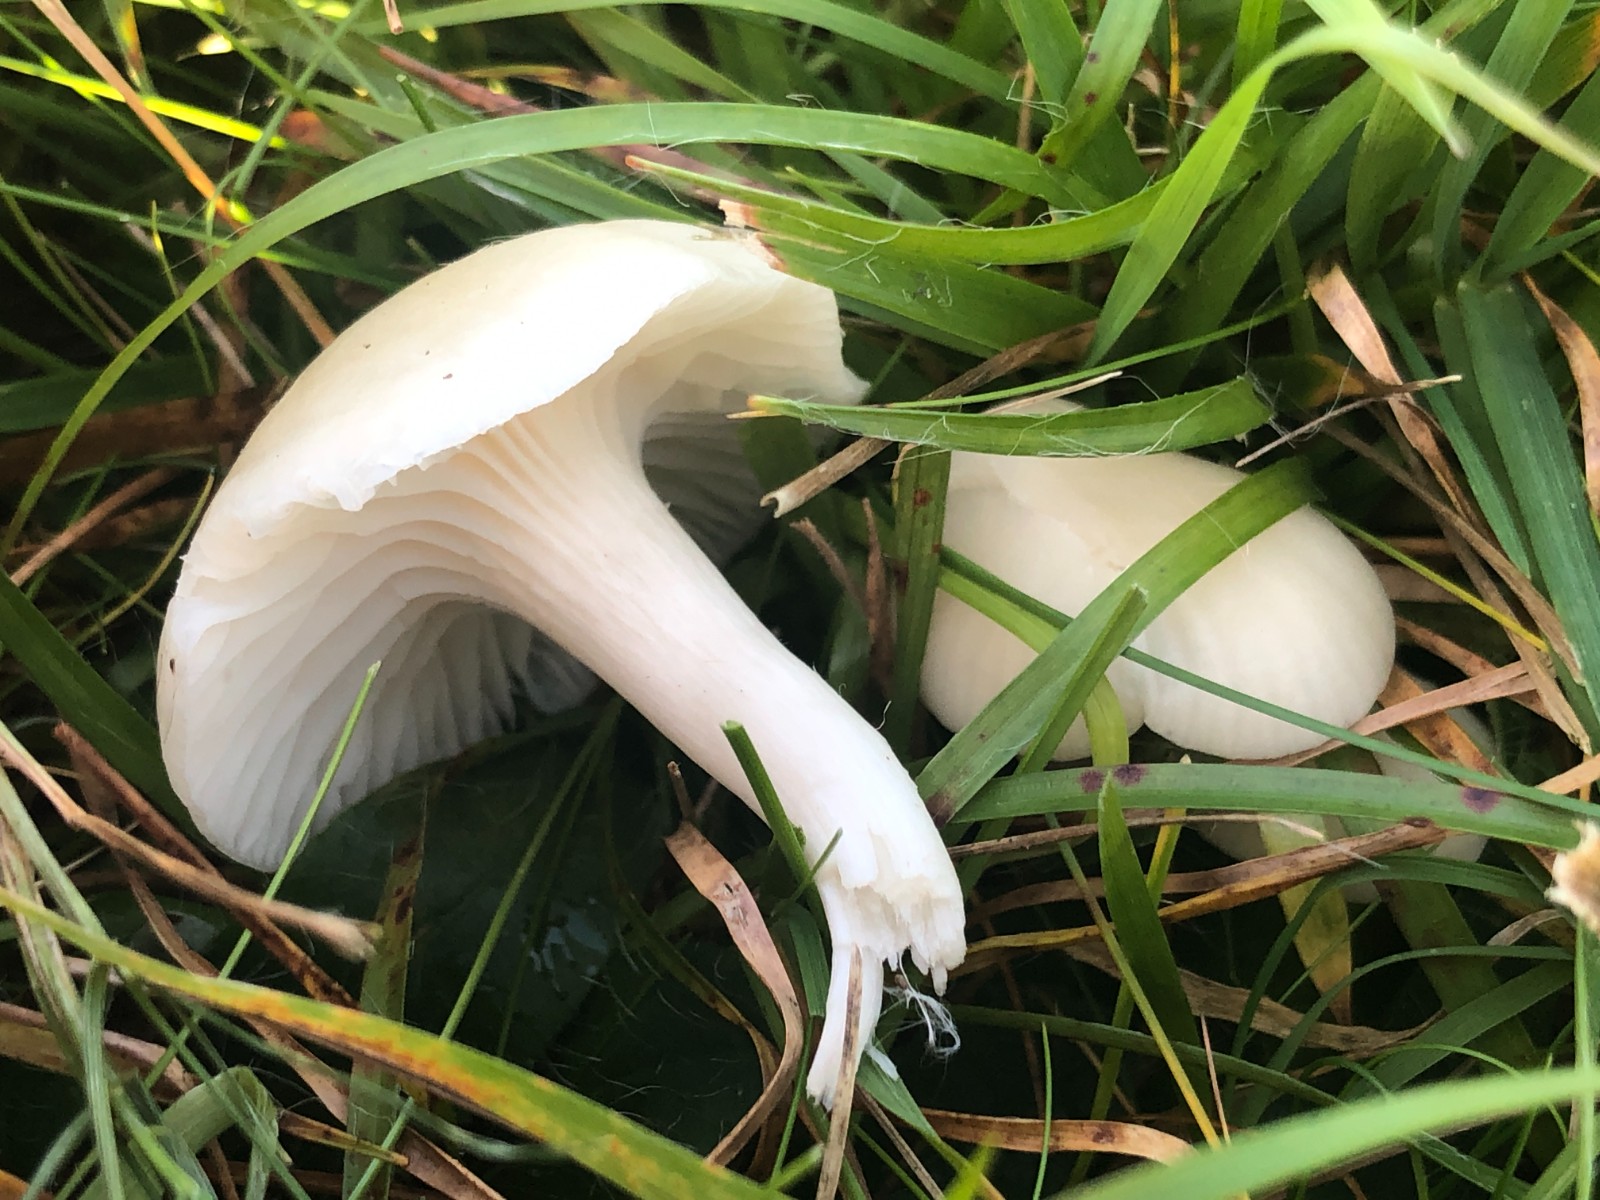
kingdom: Fungi
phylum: Basidiomycota
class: Agaricomycetes
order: Agaricales
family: Hygrophoraceae
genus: Cuphophyllus
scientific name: Cuphophyllus virgineus
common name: snehvid vokshat
